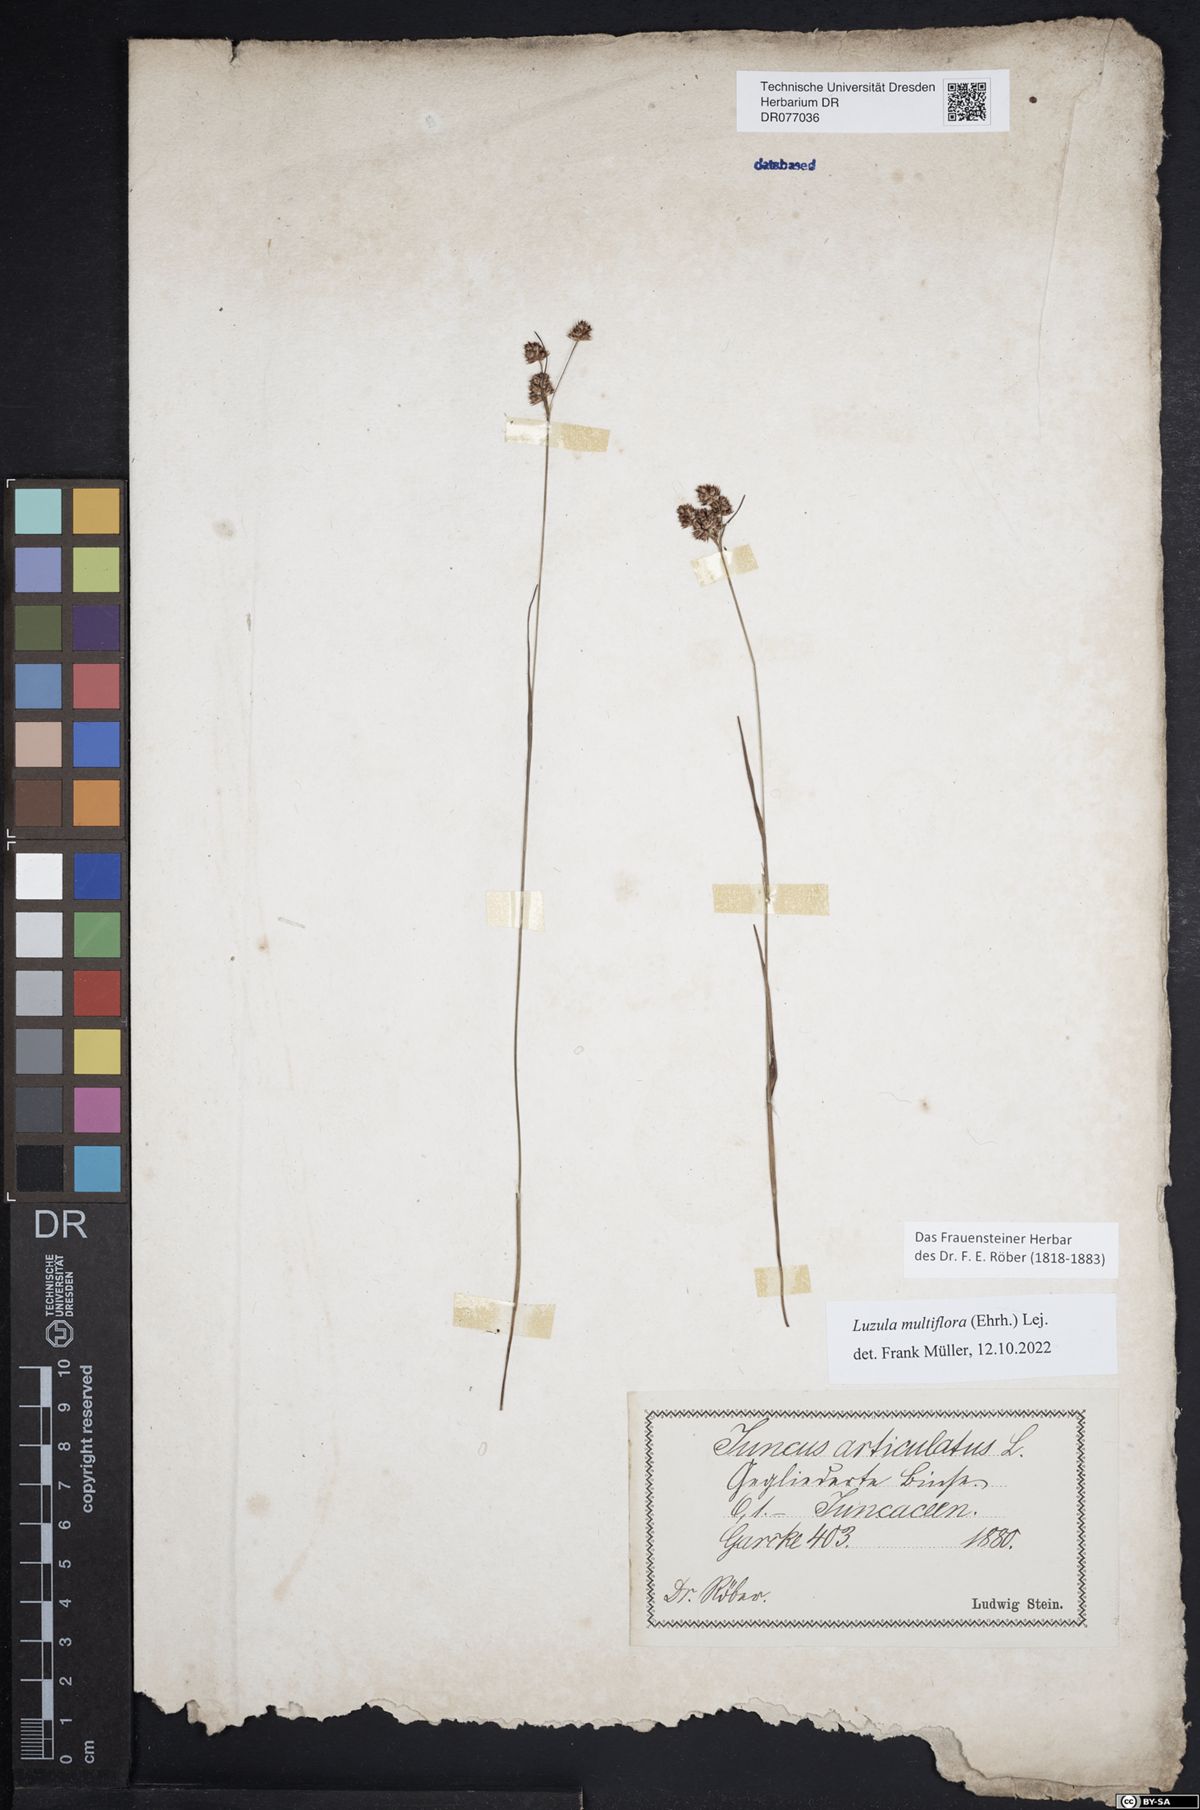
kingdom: Plantae
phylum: Tracheophyta
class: Liliopsida
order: Poales
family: Juncaceae
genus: Luzula
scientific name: Luzula multiflora
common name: Heath wood-rush
